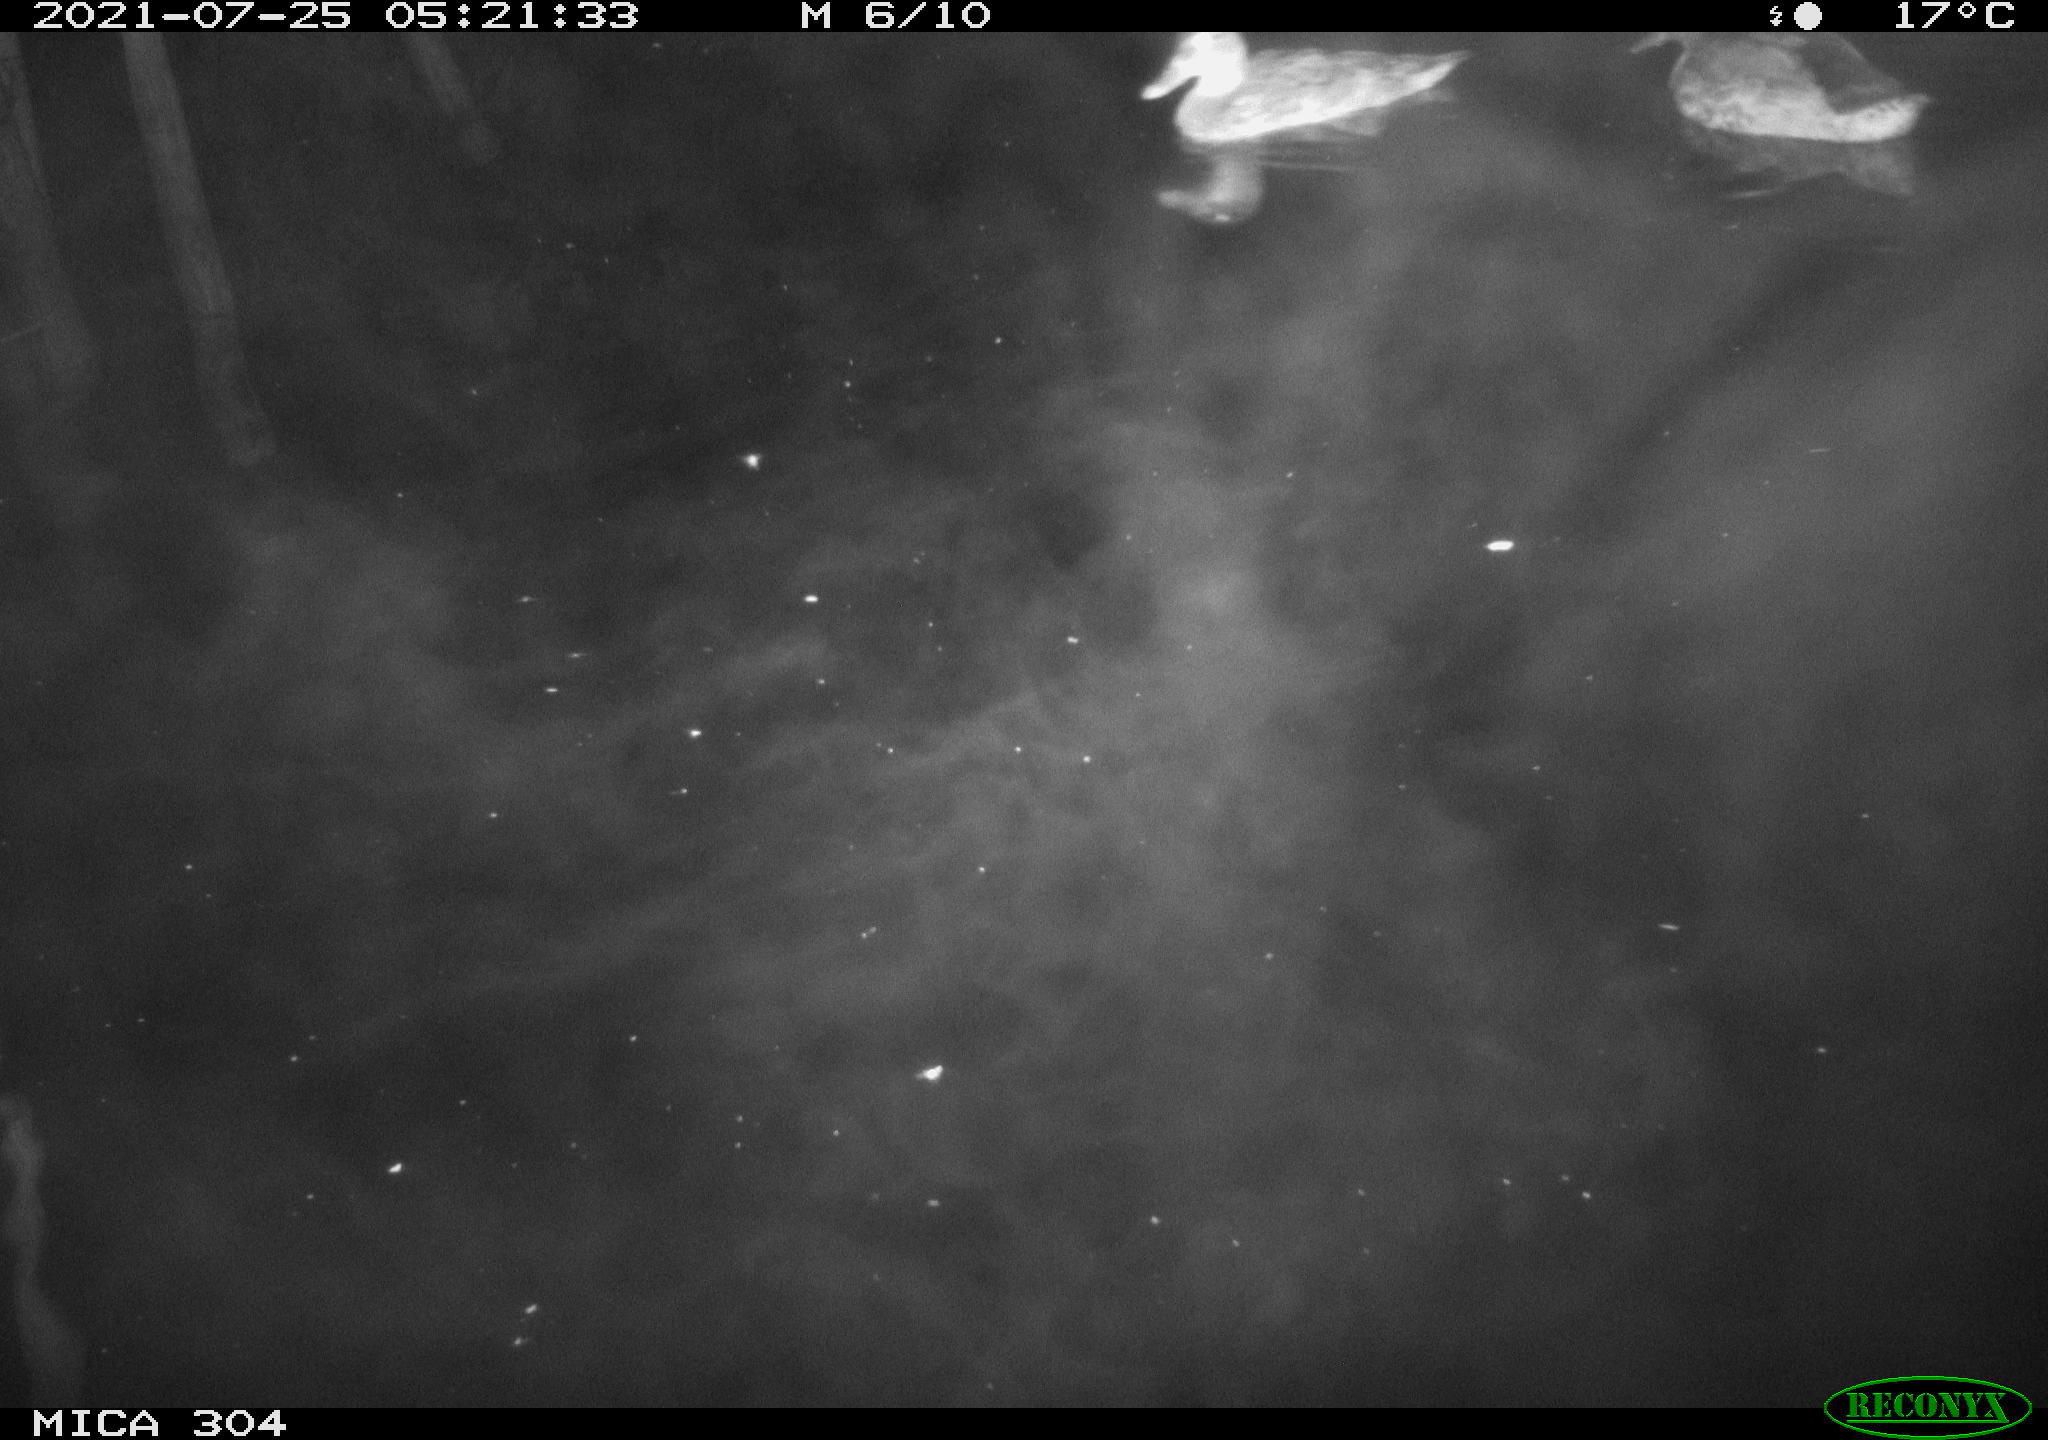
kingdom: Animalia
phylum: Chordata
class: Aves
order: Anseriformes
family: Anatidae
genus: Anas
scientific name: Anas platyrhynchos
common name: Mallard
